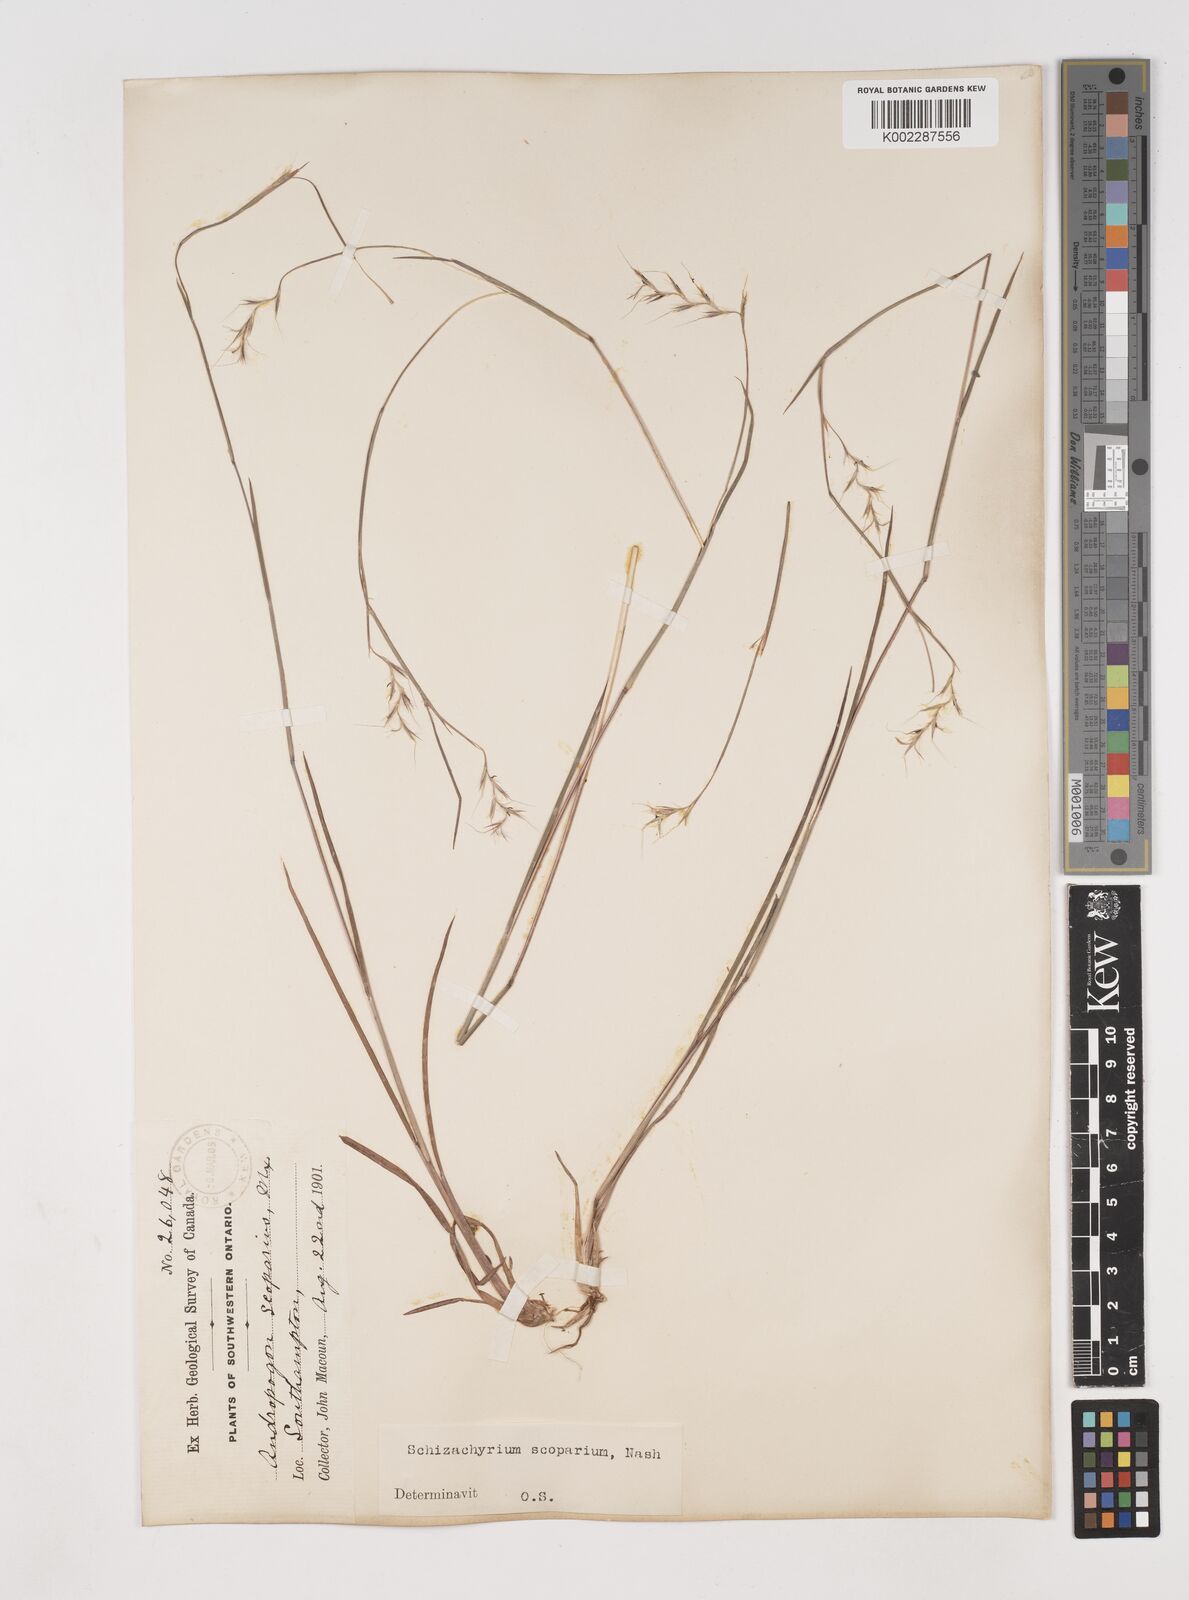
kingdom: Plantae
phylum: Tracheophyta
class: Liliopsida
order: Poales
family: Poaceae
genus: Schizachyrium
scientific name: Schizachyrium scoparium
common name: Little bluestem
